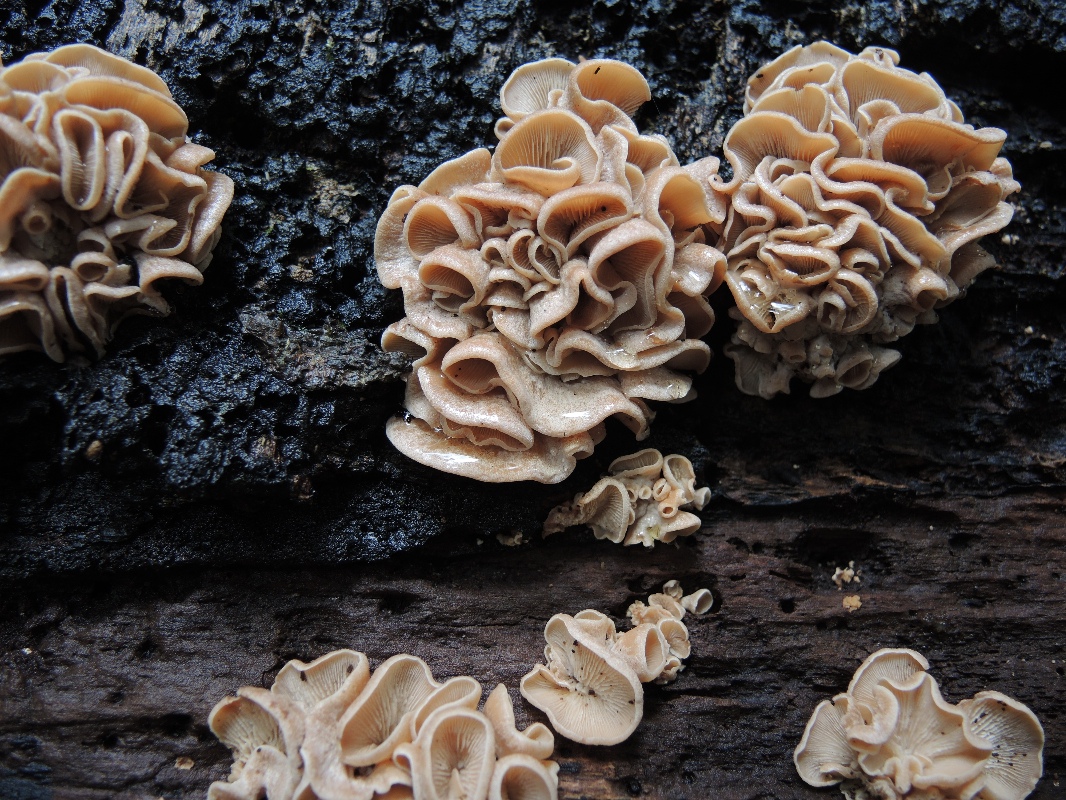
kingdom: Fungi
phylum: Basidiomycota
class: Agaricomycetes
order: Russulales
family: Auriscalpiaceae
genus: Lentinellus
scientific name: Lentinellus ursinus
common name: børstehåret savbladhat
